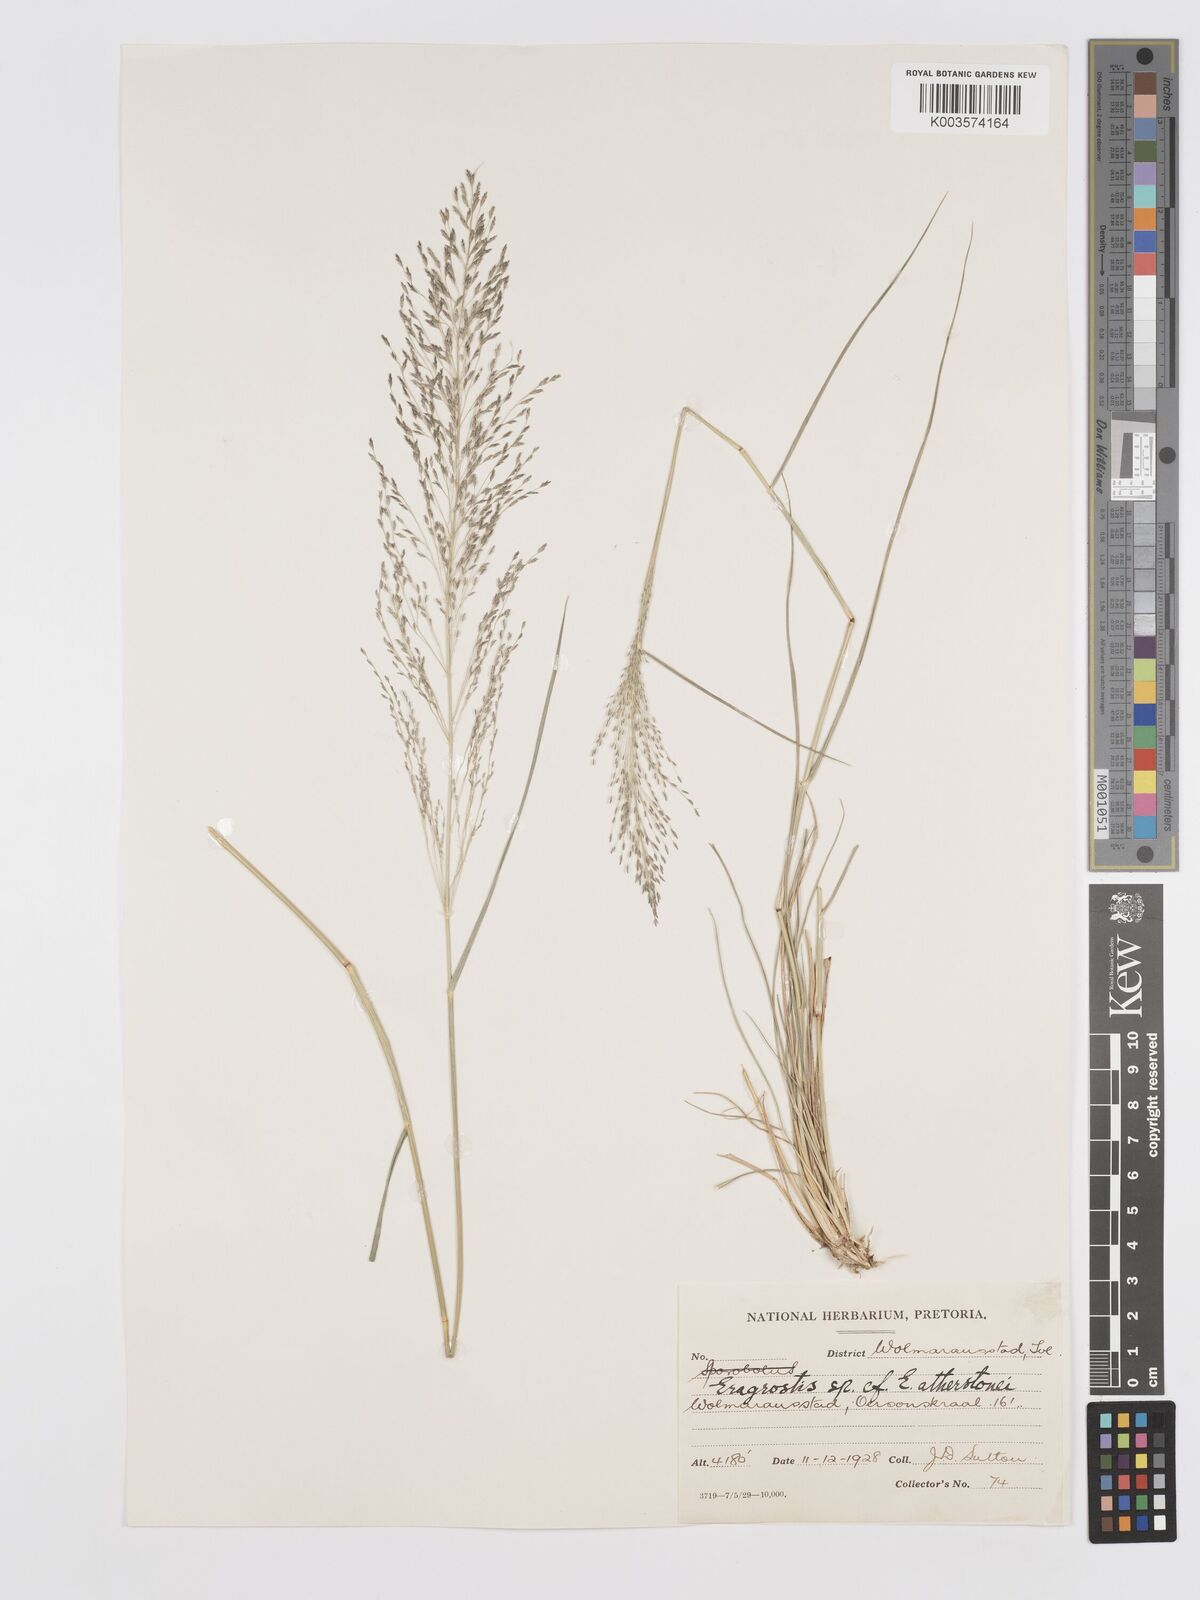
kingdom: Plantae
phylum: Tracheophyta
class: Liliopsida
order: Poales
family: Poaceae
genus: Eragrostis
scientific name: Eragrostis cylindriflora
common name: Cylinderflower lovegrass
